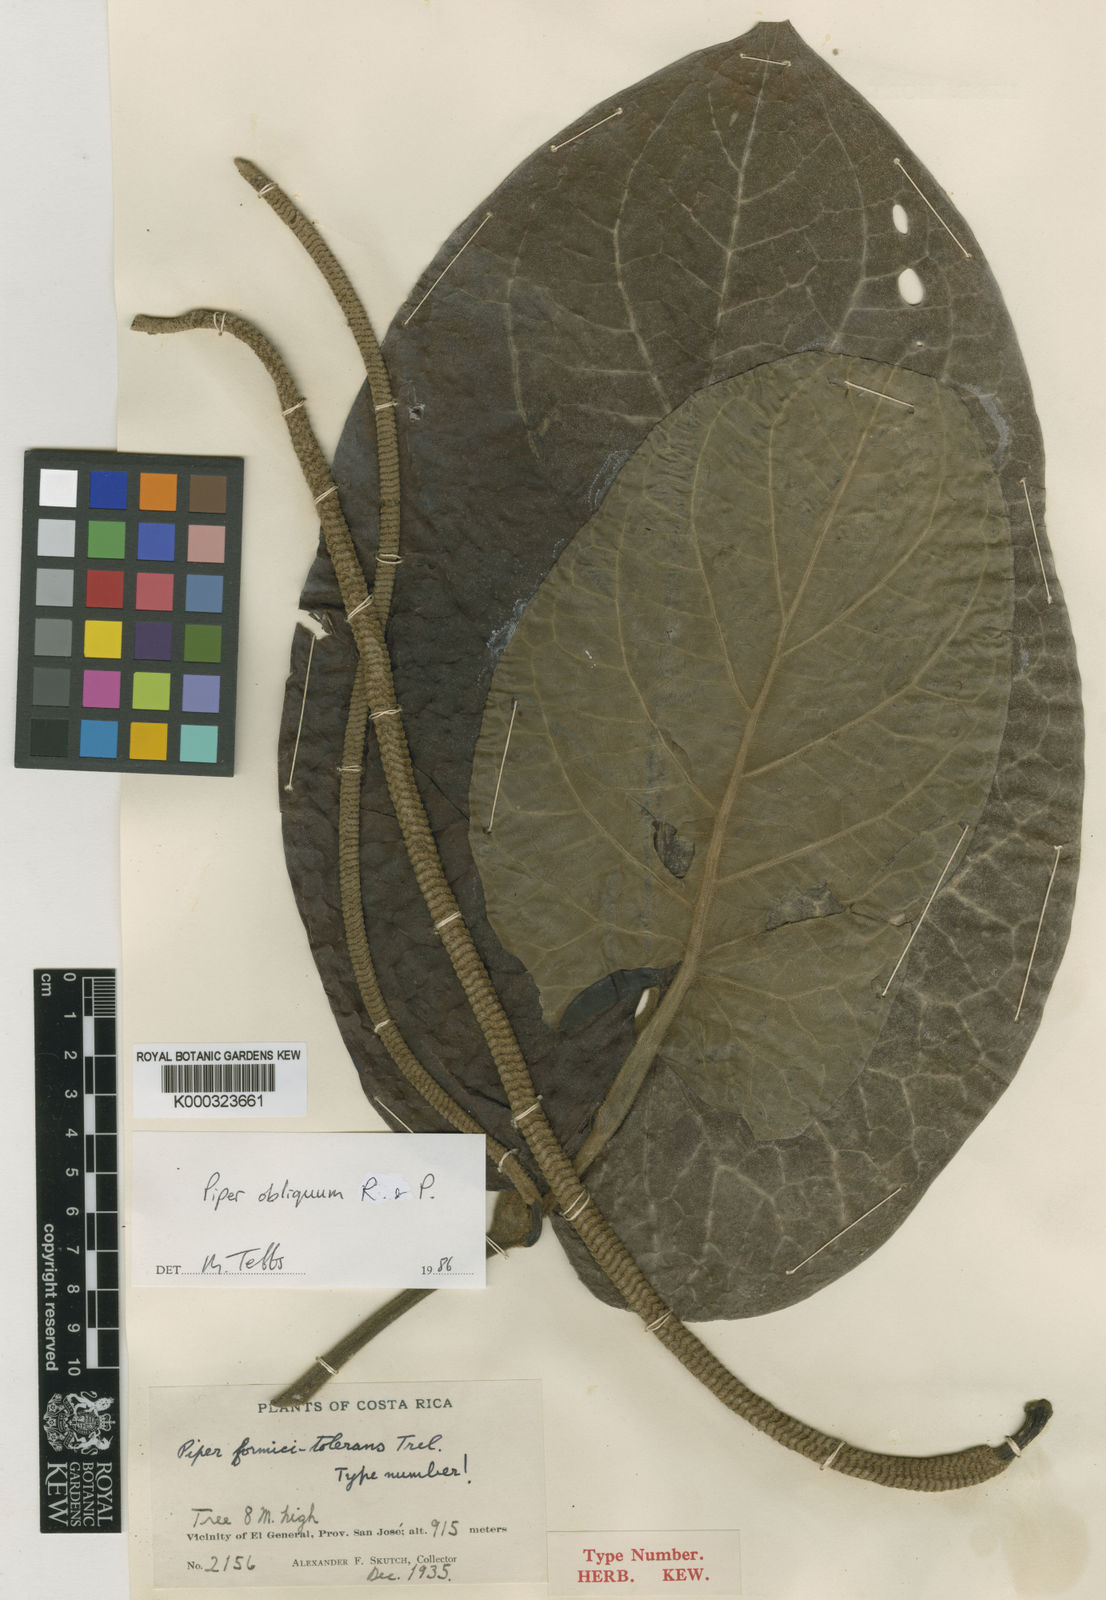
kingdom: Plantae
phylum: Tracheophyta
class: Magnoliopsida
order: Piperales
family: Piperaceae
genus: Piper
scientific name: Piper obliquum
